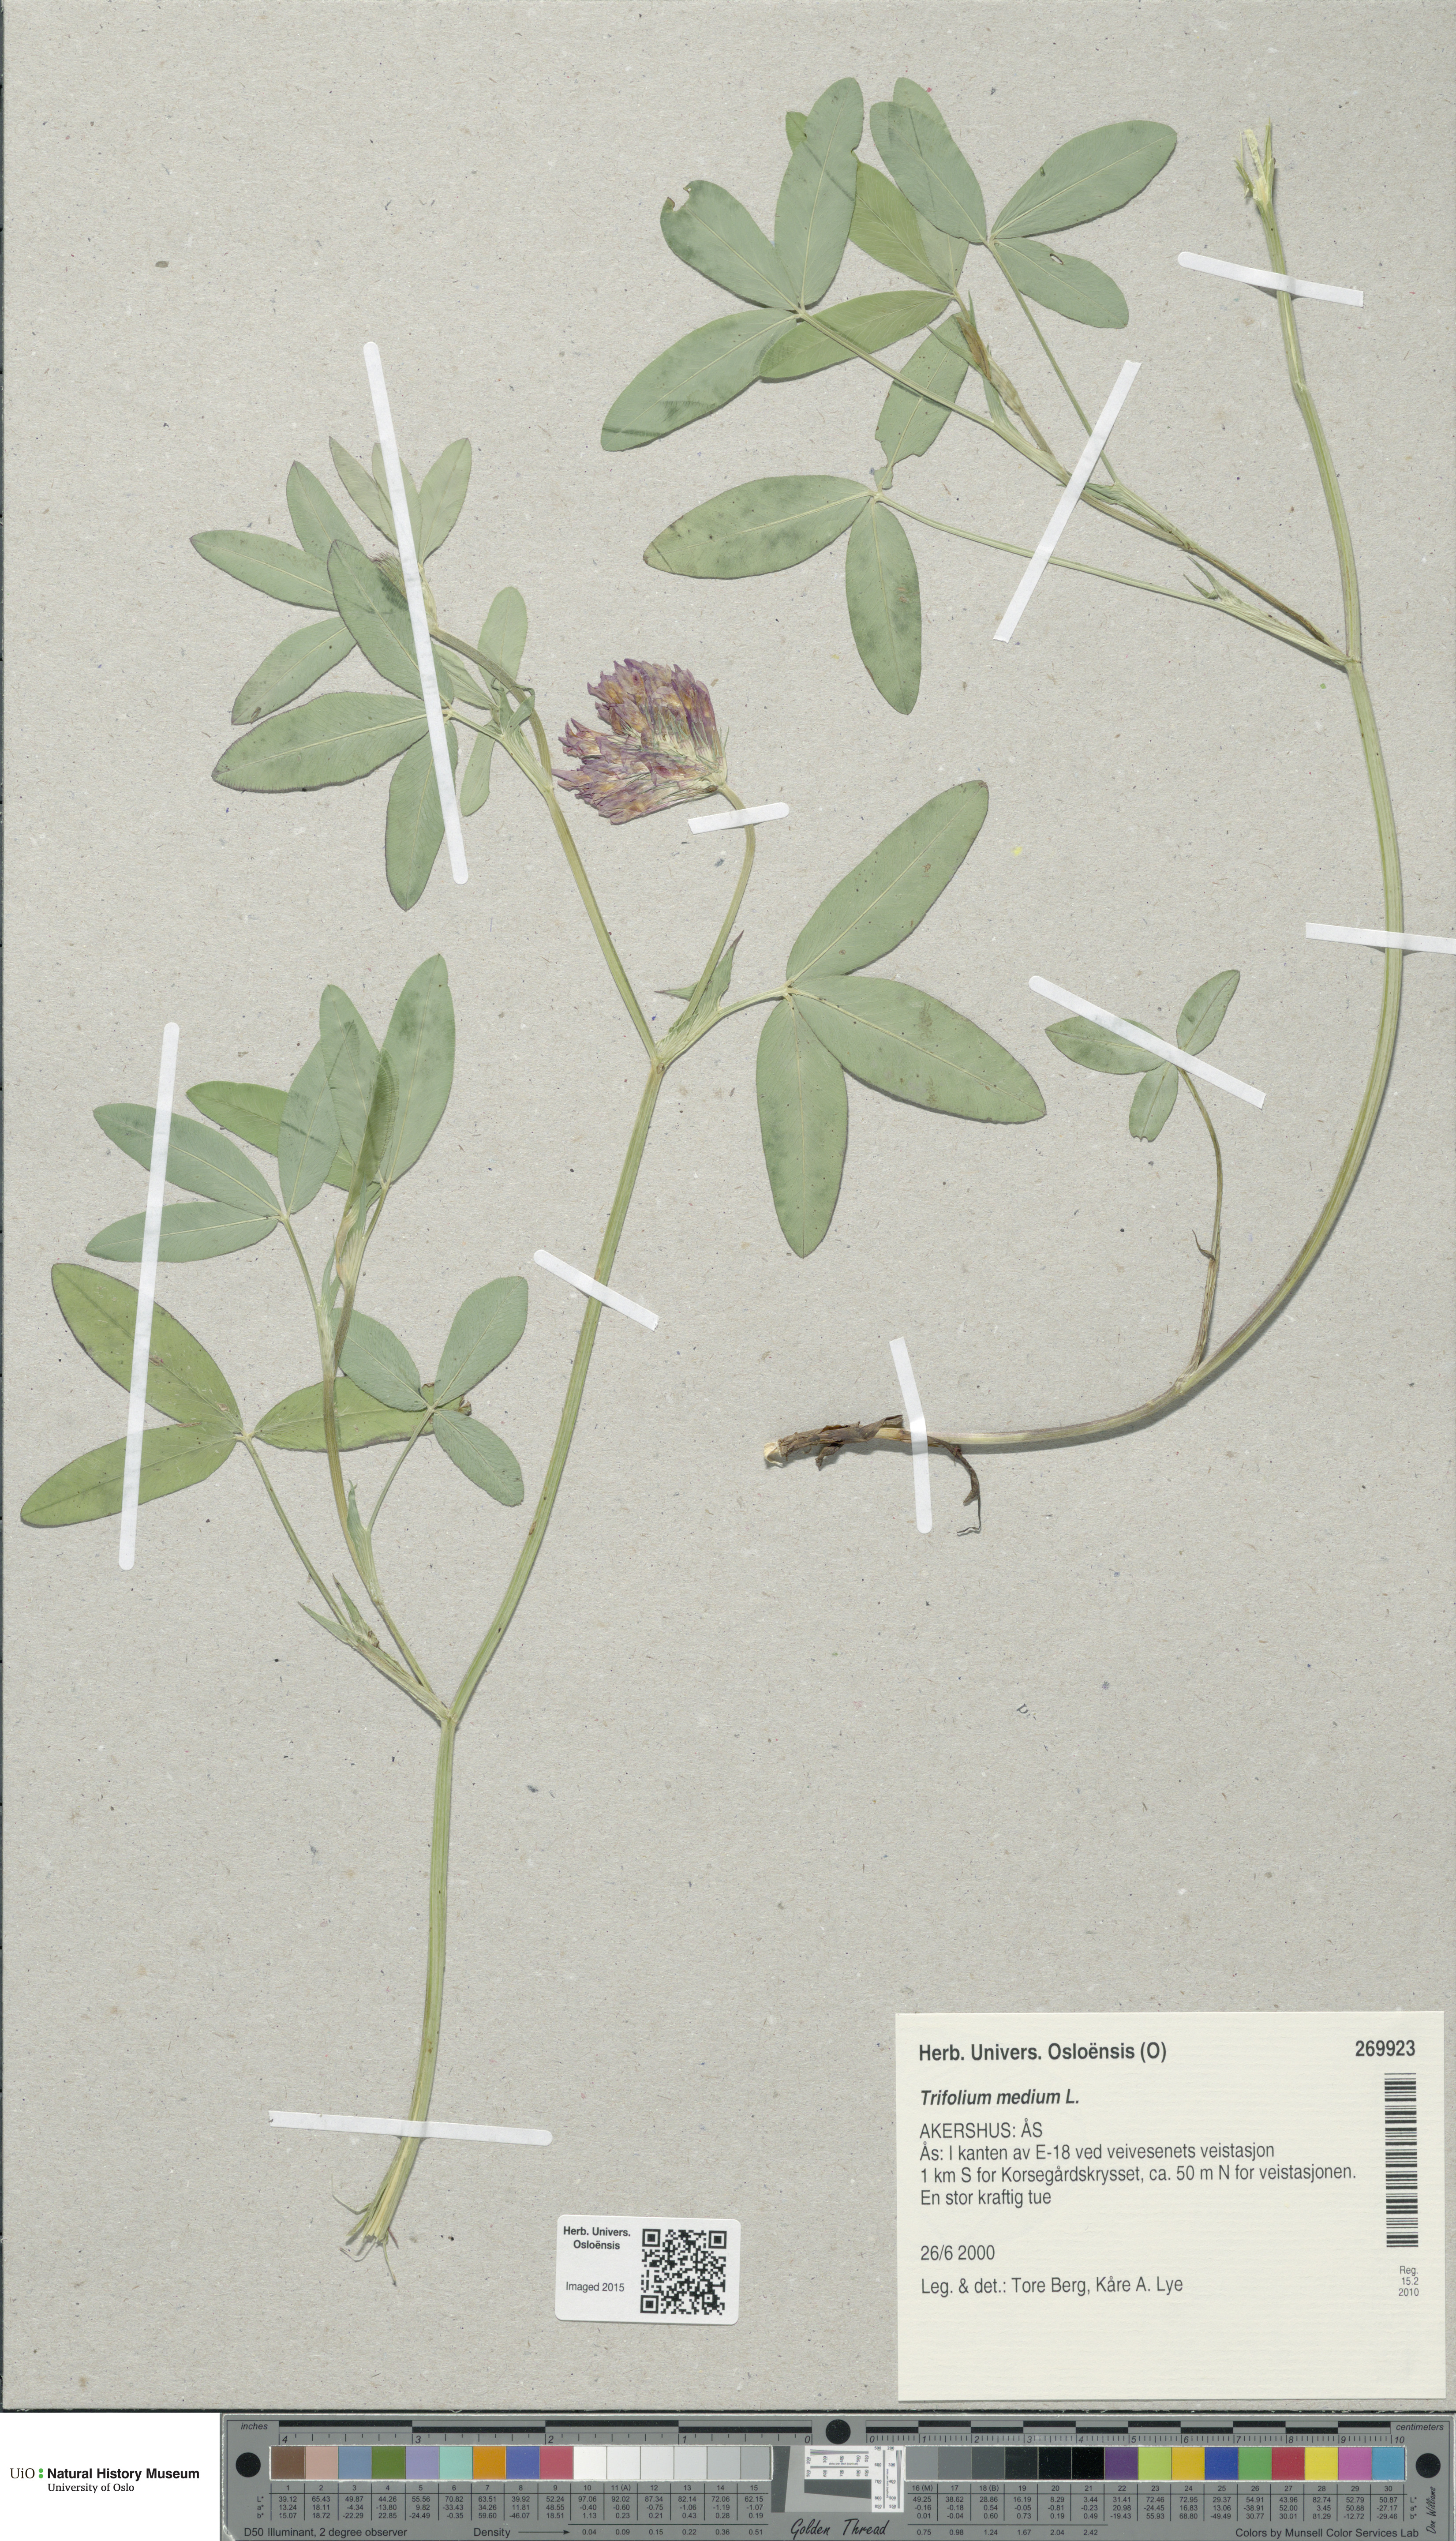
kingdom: Plantae
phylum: Tracheophyta
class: Magnoliopsida
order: Fabales
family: Fabaceae
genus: Trifolium
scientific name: Trifolium medium
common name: Zigzag clover
